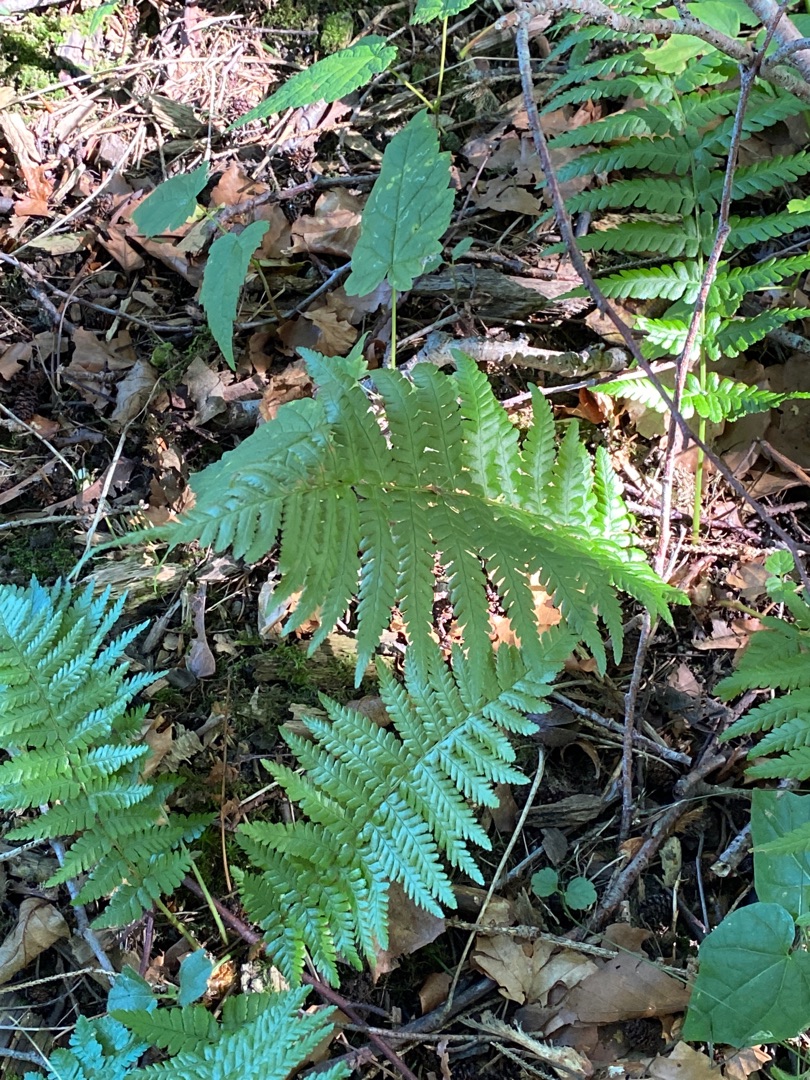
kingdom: Plantae
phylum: Tracheophyta
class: Polypodiopsida
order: Polypodiales
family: Dryopteridaceae
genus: Dryopteris
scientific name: Dryopteris filix-mas
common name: Almindelig mangeløv
